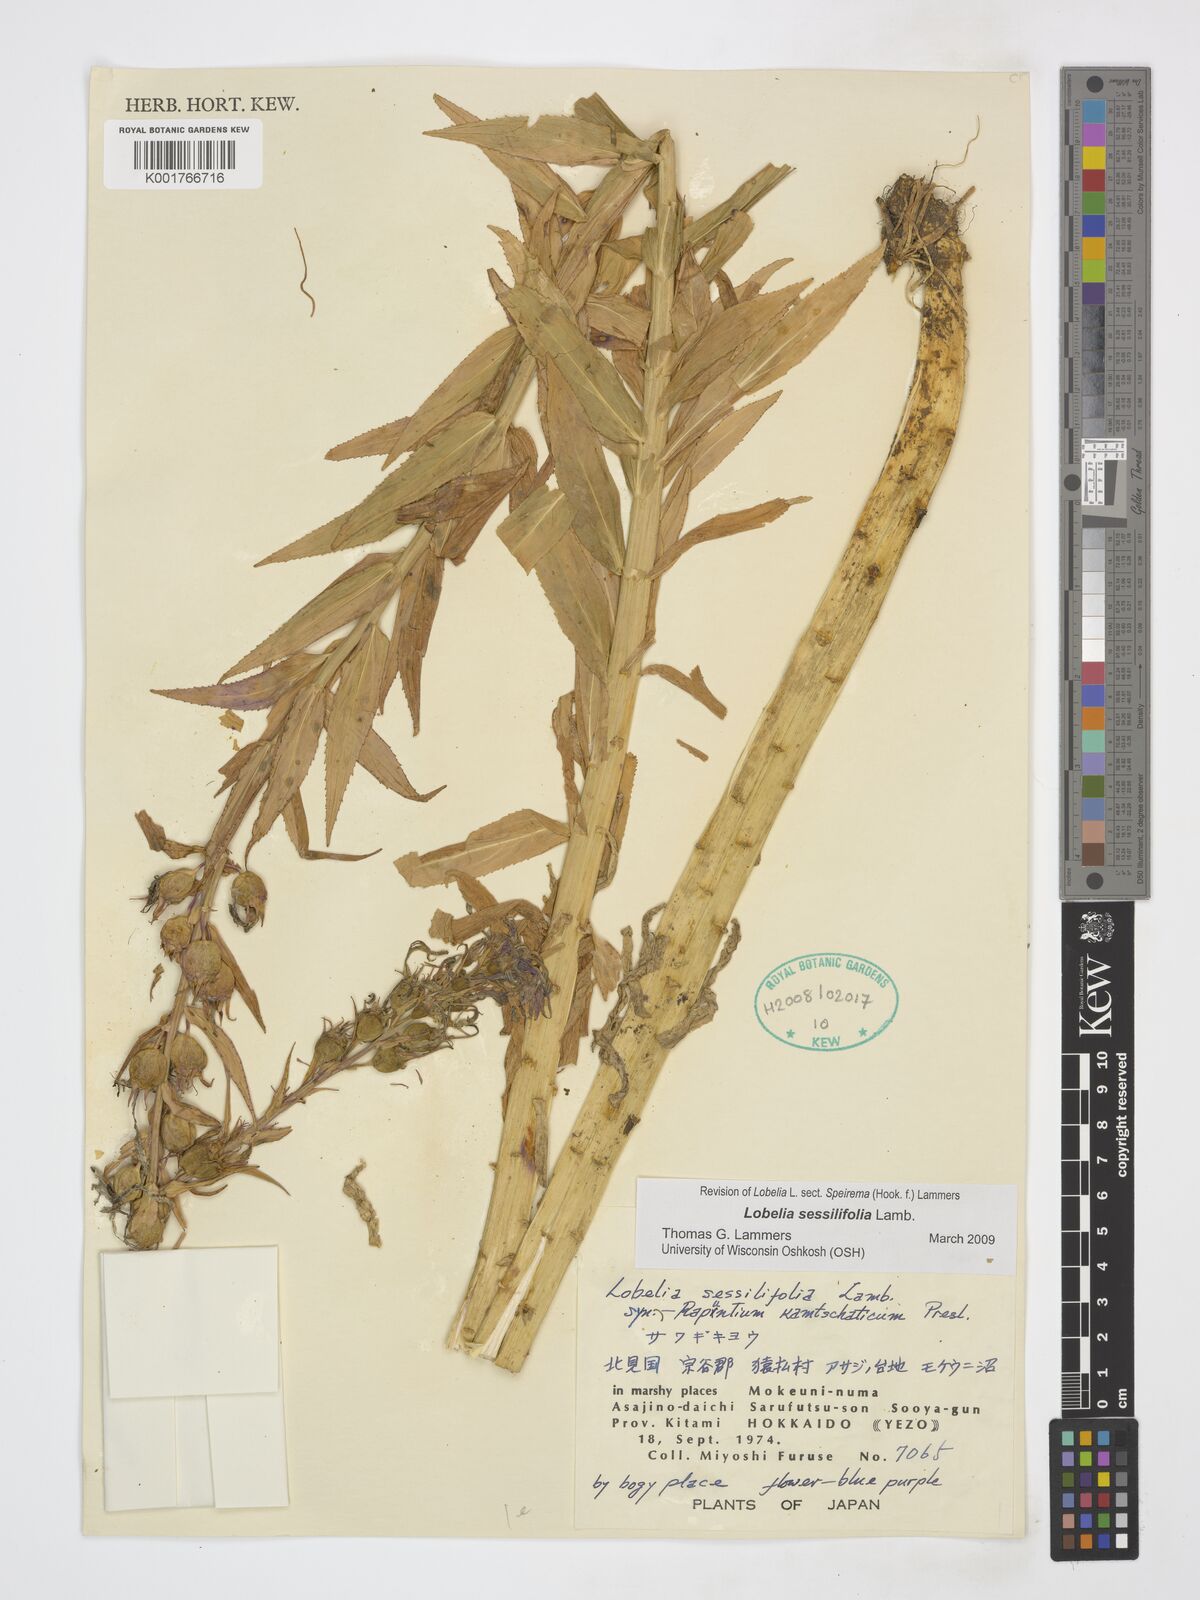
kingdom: Plantae
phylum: Tracheophyta
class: Magnoliopsida
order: Asterales
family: Campanulaceae
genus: Lobelia
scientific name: Lobelia sessilifolia
